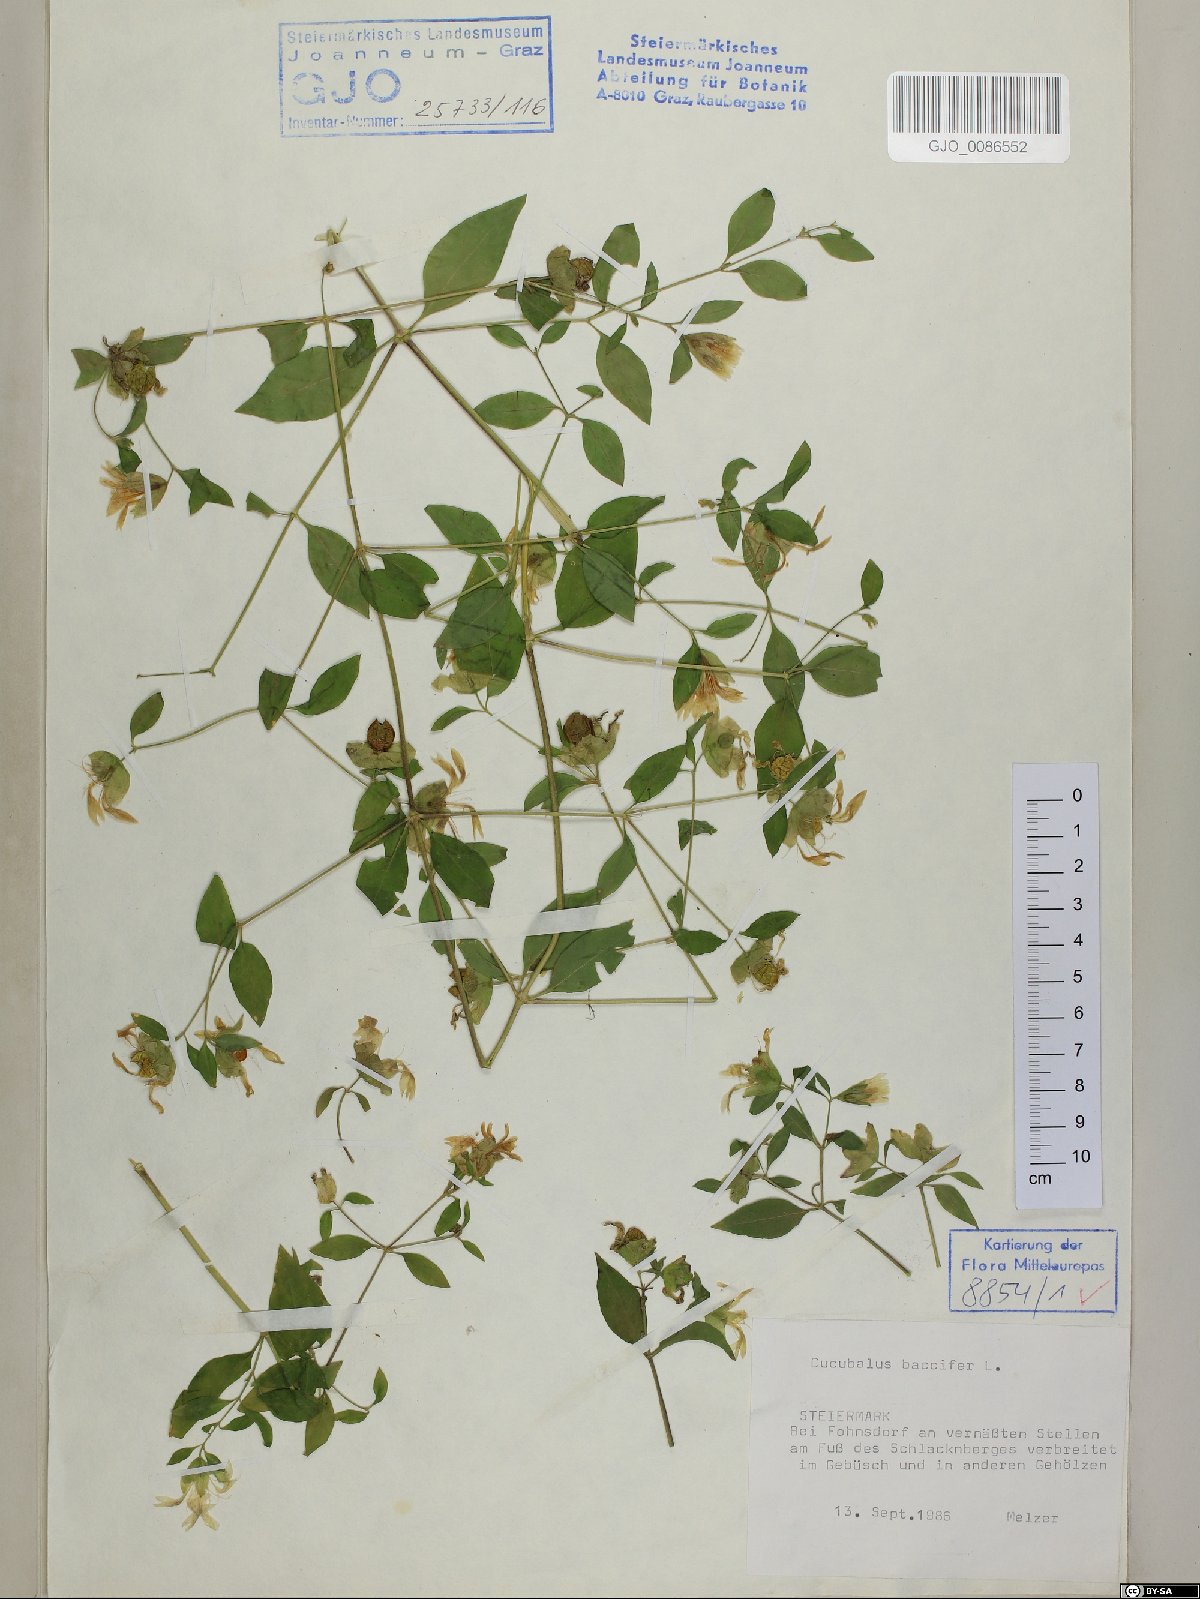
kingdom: Plantae
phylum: Tracheophyta
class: Magnoliopsida
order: Caryophyllales
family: Caryophyllaceae
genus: Silene
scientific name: Silene baccifera
